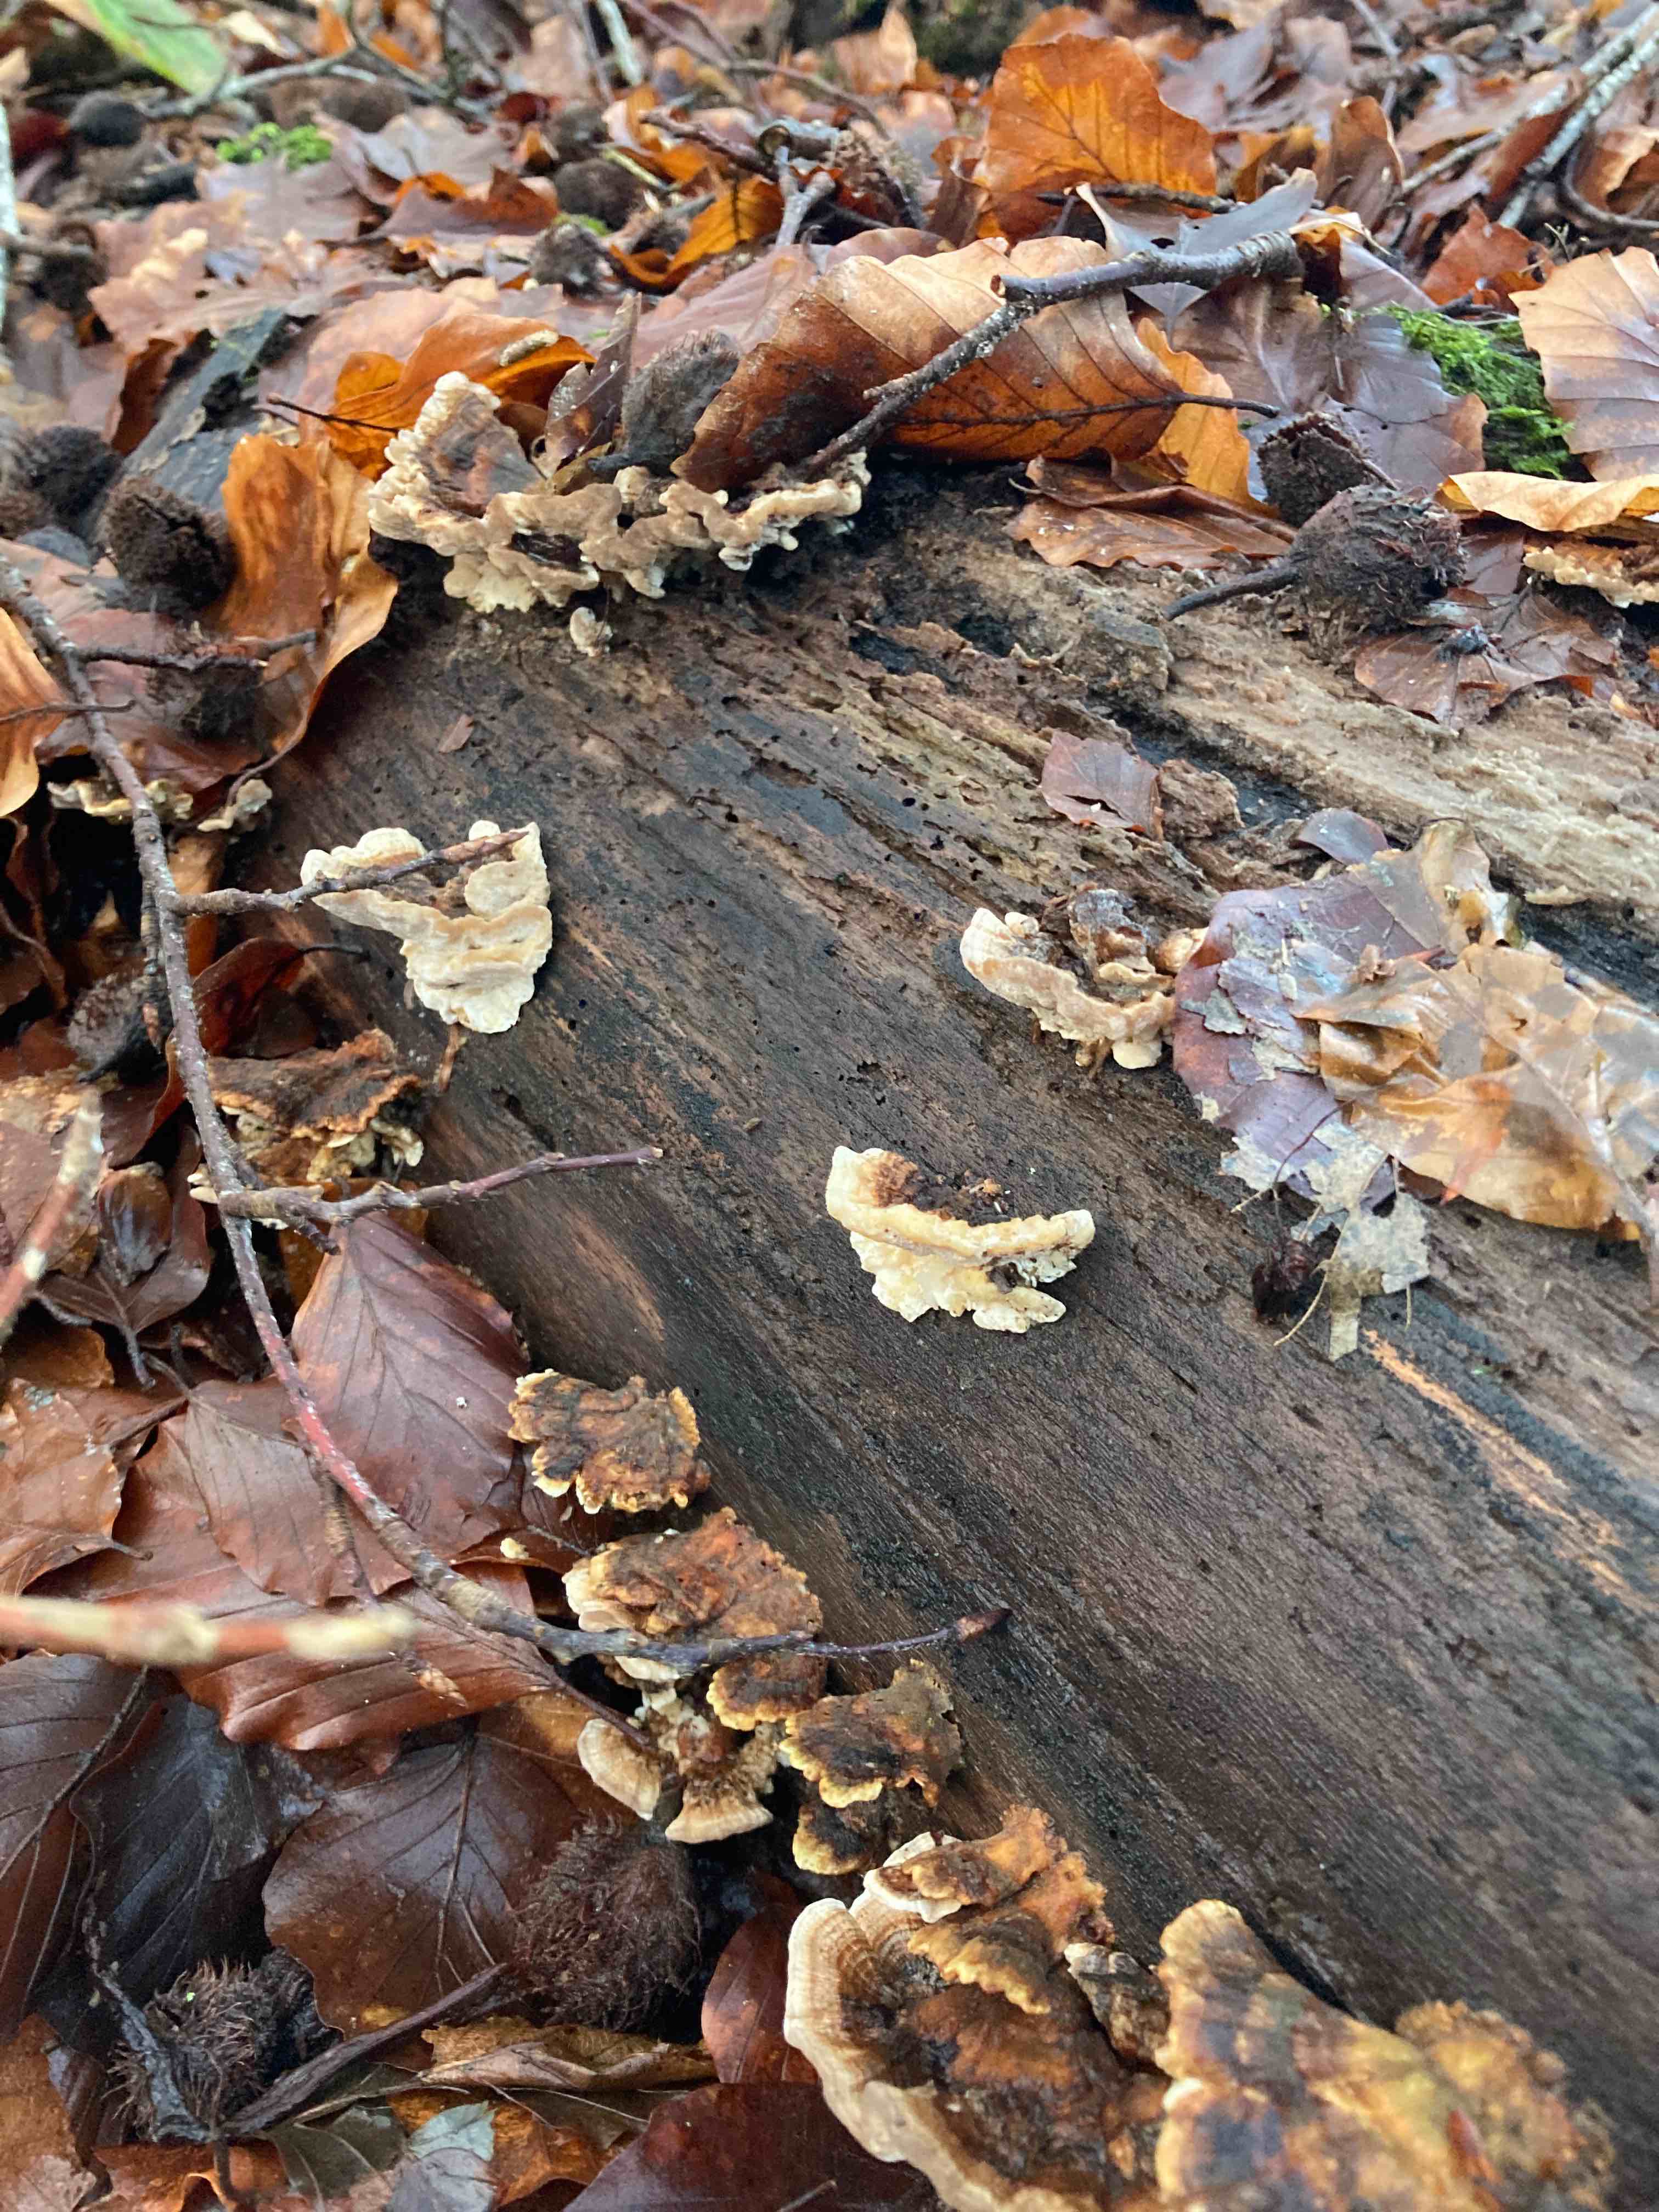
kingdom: Fungi
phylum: Basidiomycota
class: Agaricomycetes
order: Polyporales
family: Polyporaceae
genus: Trametes
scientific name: Trametes versicolor
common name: broget læderporesvamp
